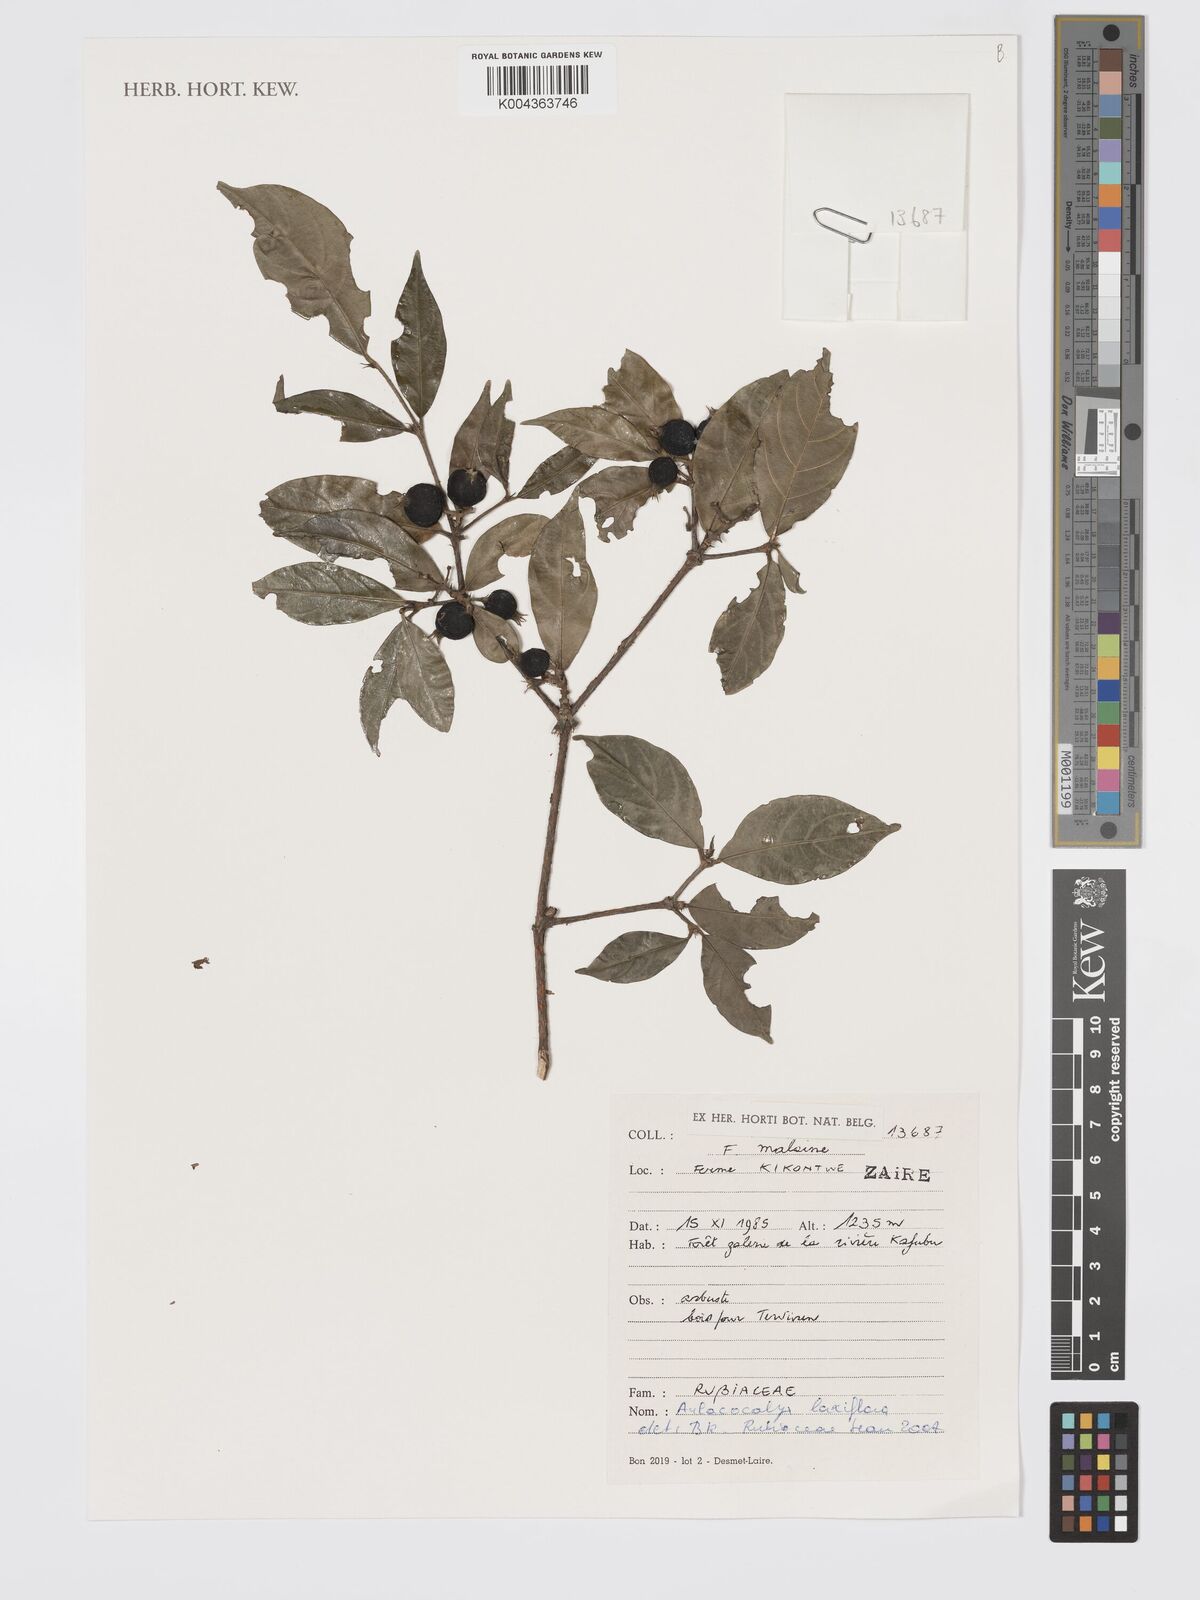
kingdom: Plantae
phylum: Tracheophyta
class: Magnoliopsida
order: Gentianales
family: Rubiaceae
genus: Aulacocalyx
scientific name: Aulacocalyx laxiflora
